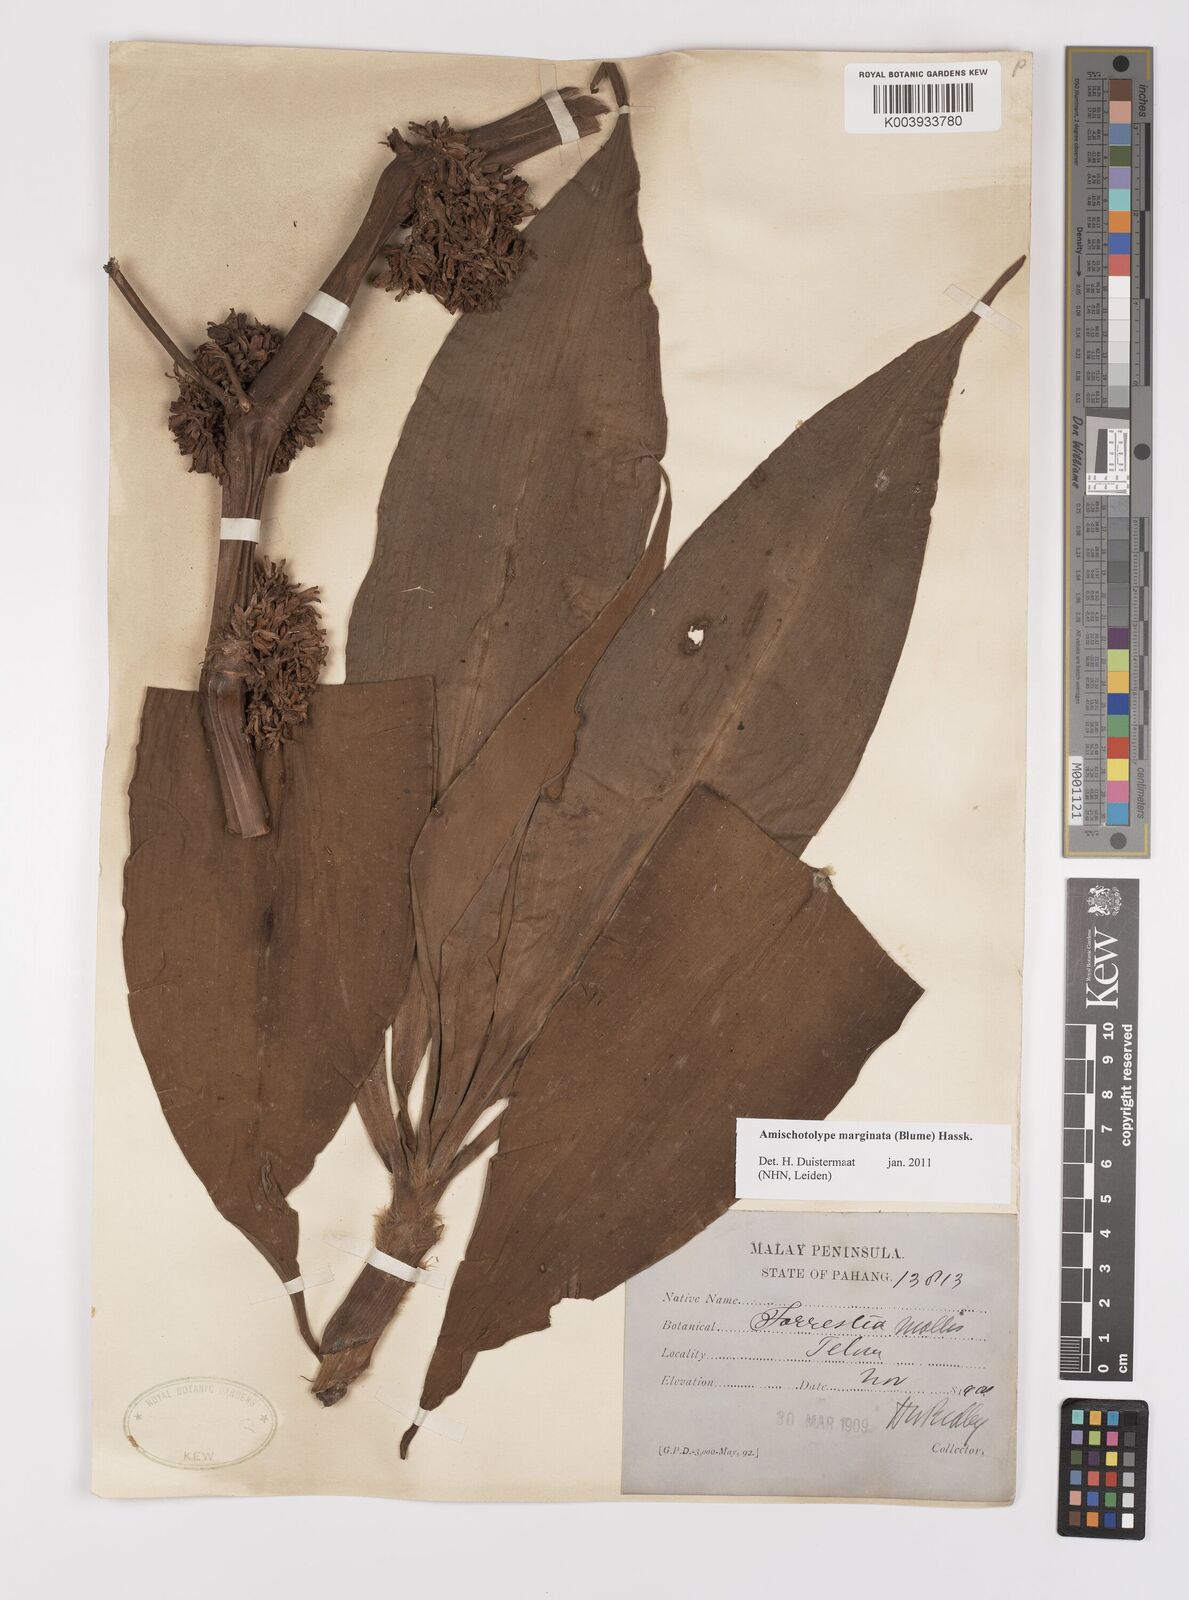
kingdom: Plantae
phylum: Tracheophyta
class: Liliopsida
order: Commelinales
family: Commelinaceae
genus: Amischotolype
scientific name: Amischotolype marginata
